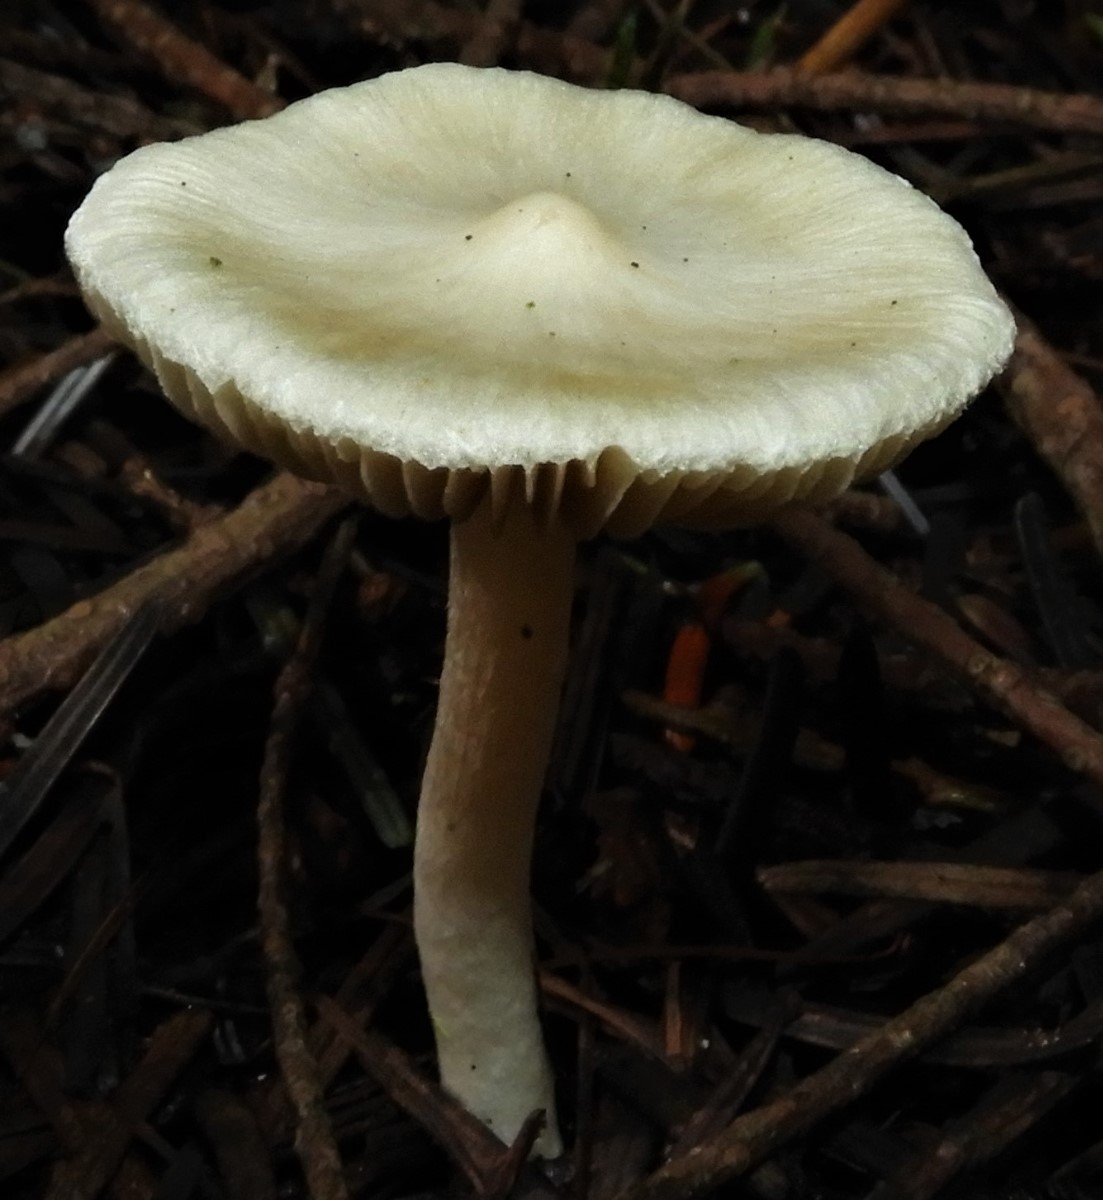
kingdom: Fungi
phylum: Basidiomycota
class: Agaricomycetes
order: Agaricales
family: Inocybaceae
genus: Inocybe
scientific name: Inocybe
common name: almindelig trævlhat
